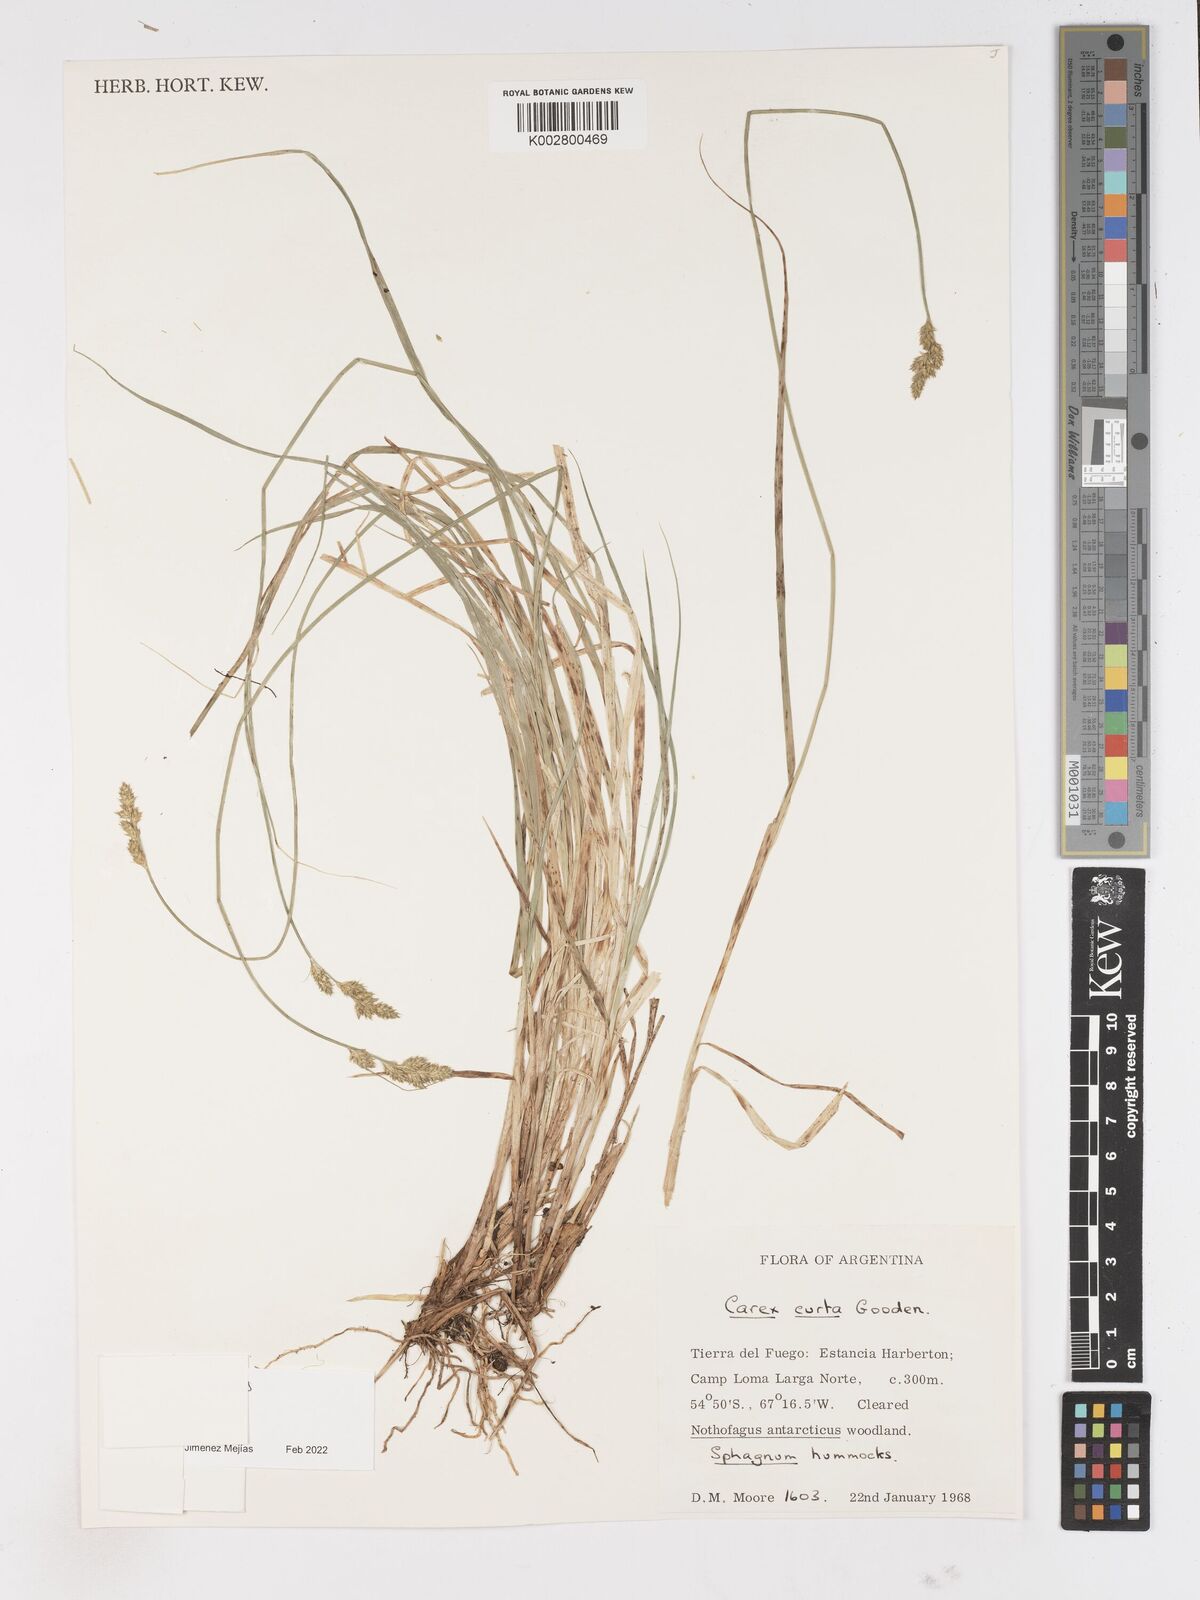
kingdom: Plantae
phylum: Tracheophyta
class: Liliopsida
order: Poales
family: Cyperaceae
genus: Carex
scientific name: Carex
